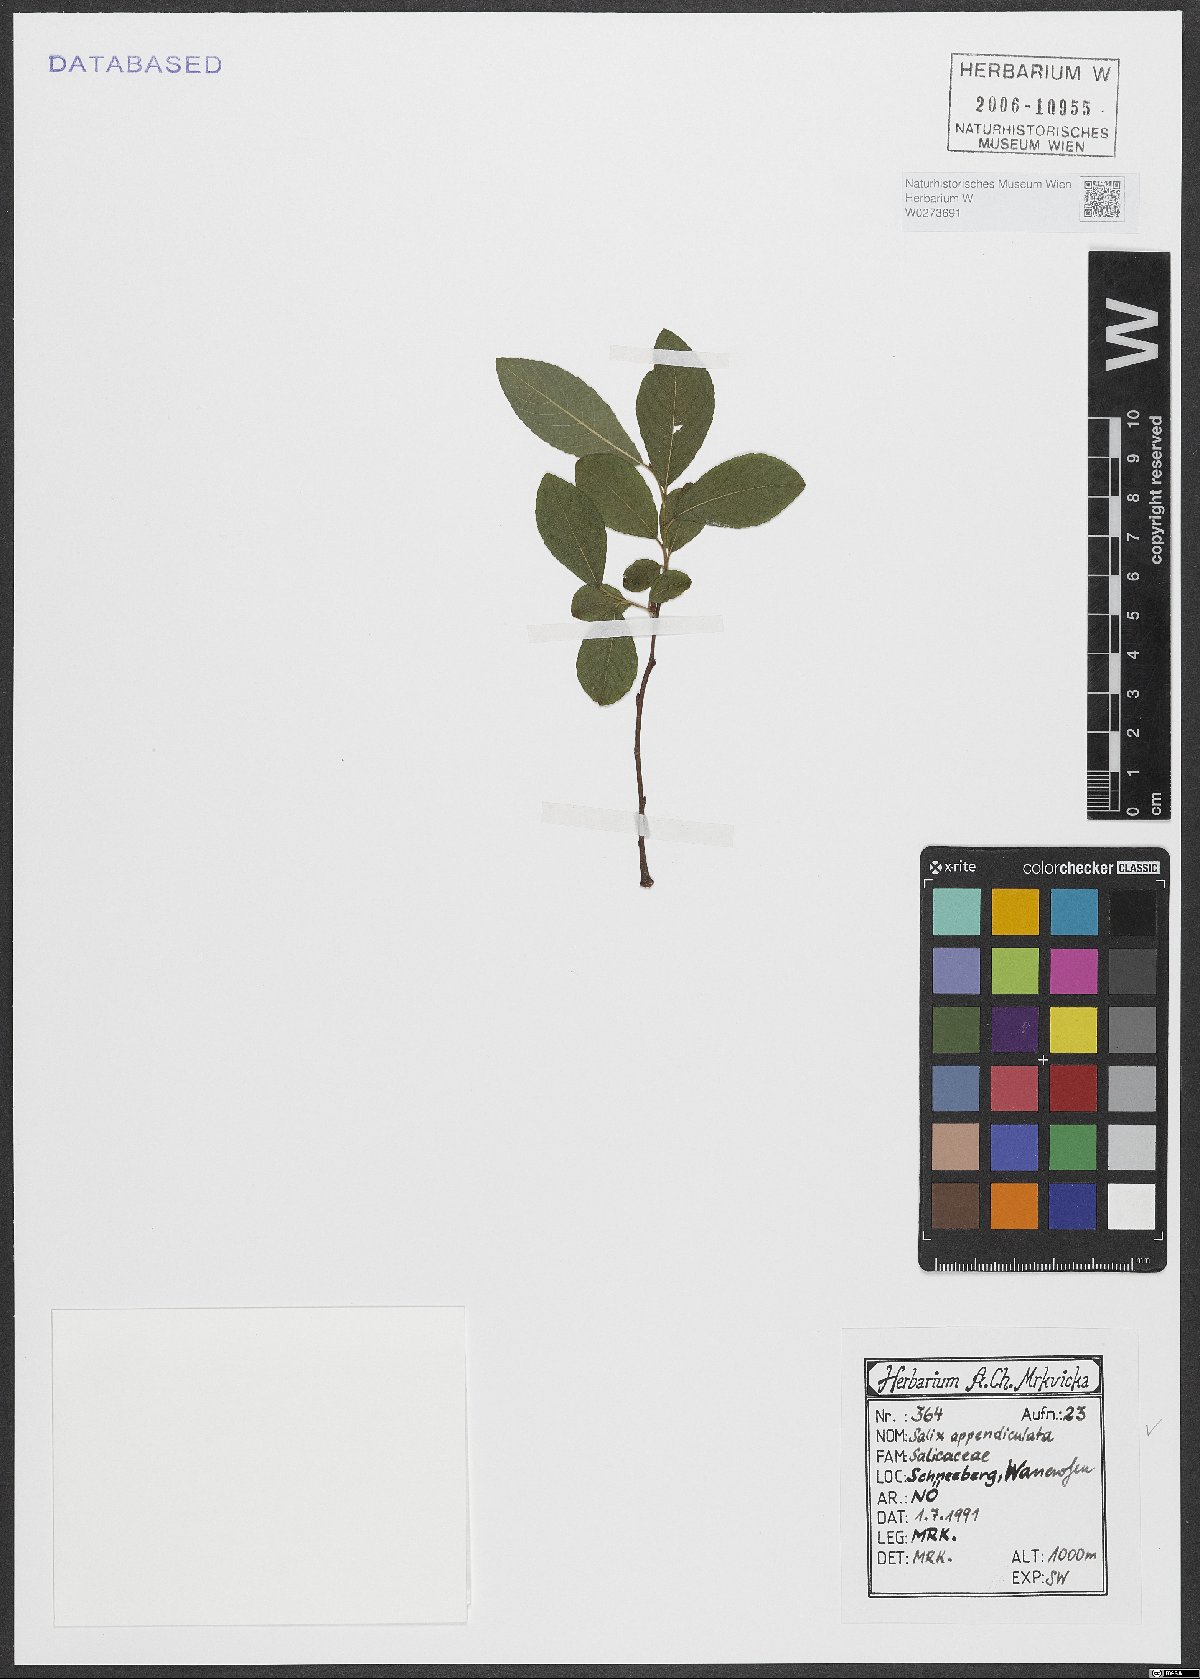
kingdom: Plantae
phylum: Tracheophyta
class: Magnoliopsida
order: Malpighiales
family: Salicaceae
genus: Salix
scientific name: Salix appendiculata
